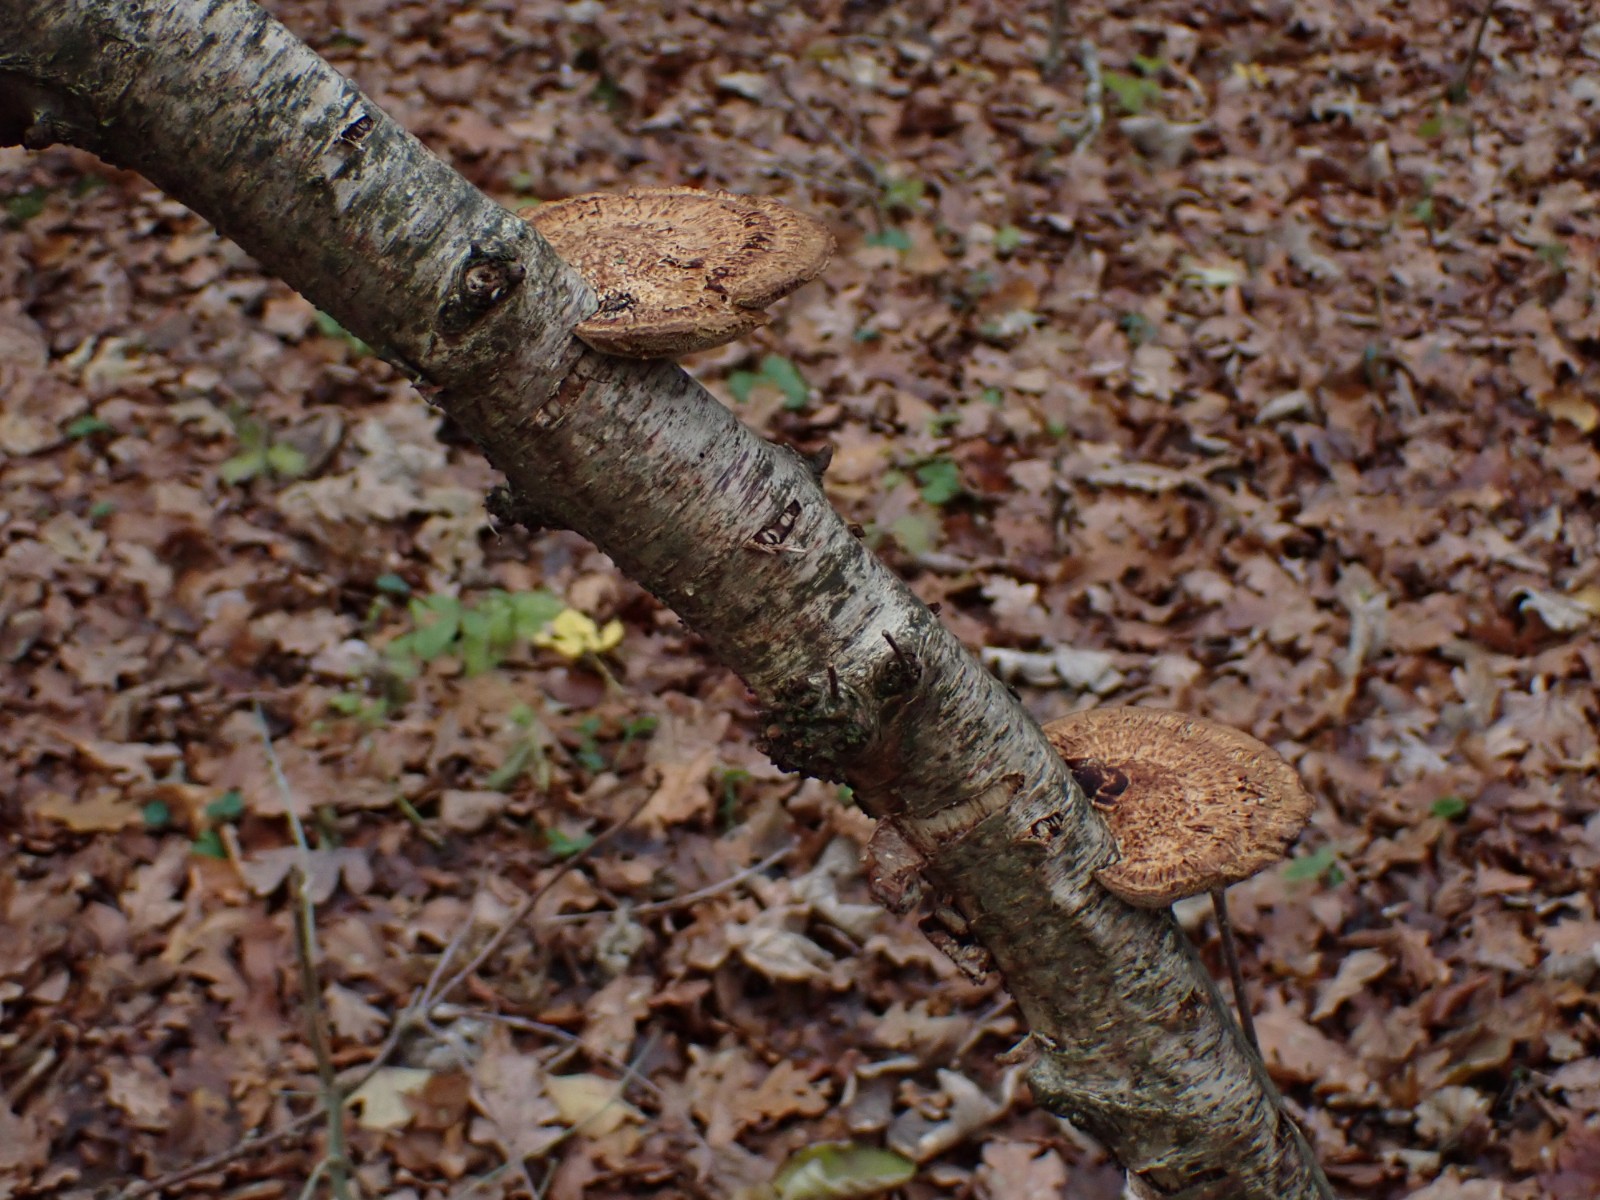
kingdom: Fungi
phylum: Basidiomycota
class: Agaricomycetes
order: Polyporales
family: Polyporaceae
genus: Daedaleopsis
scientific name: Daedaleopsis confragosa
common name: rødmende læderporesvamp
